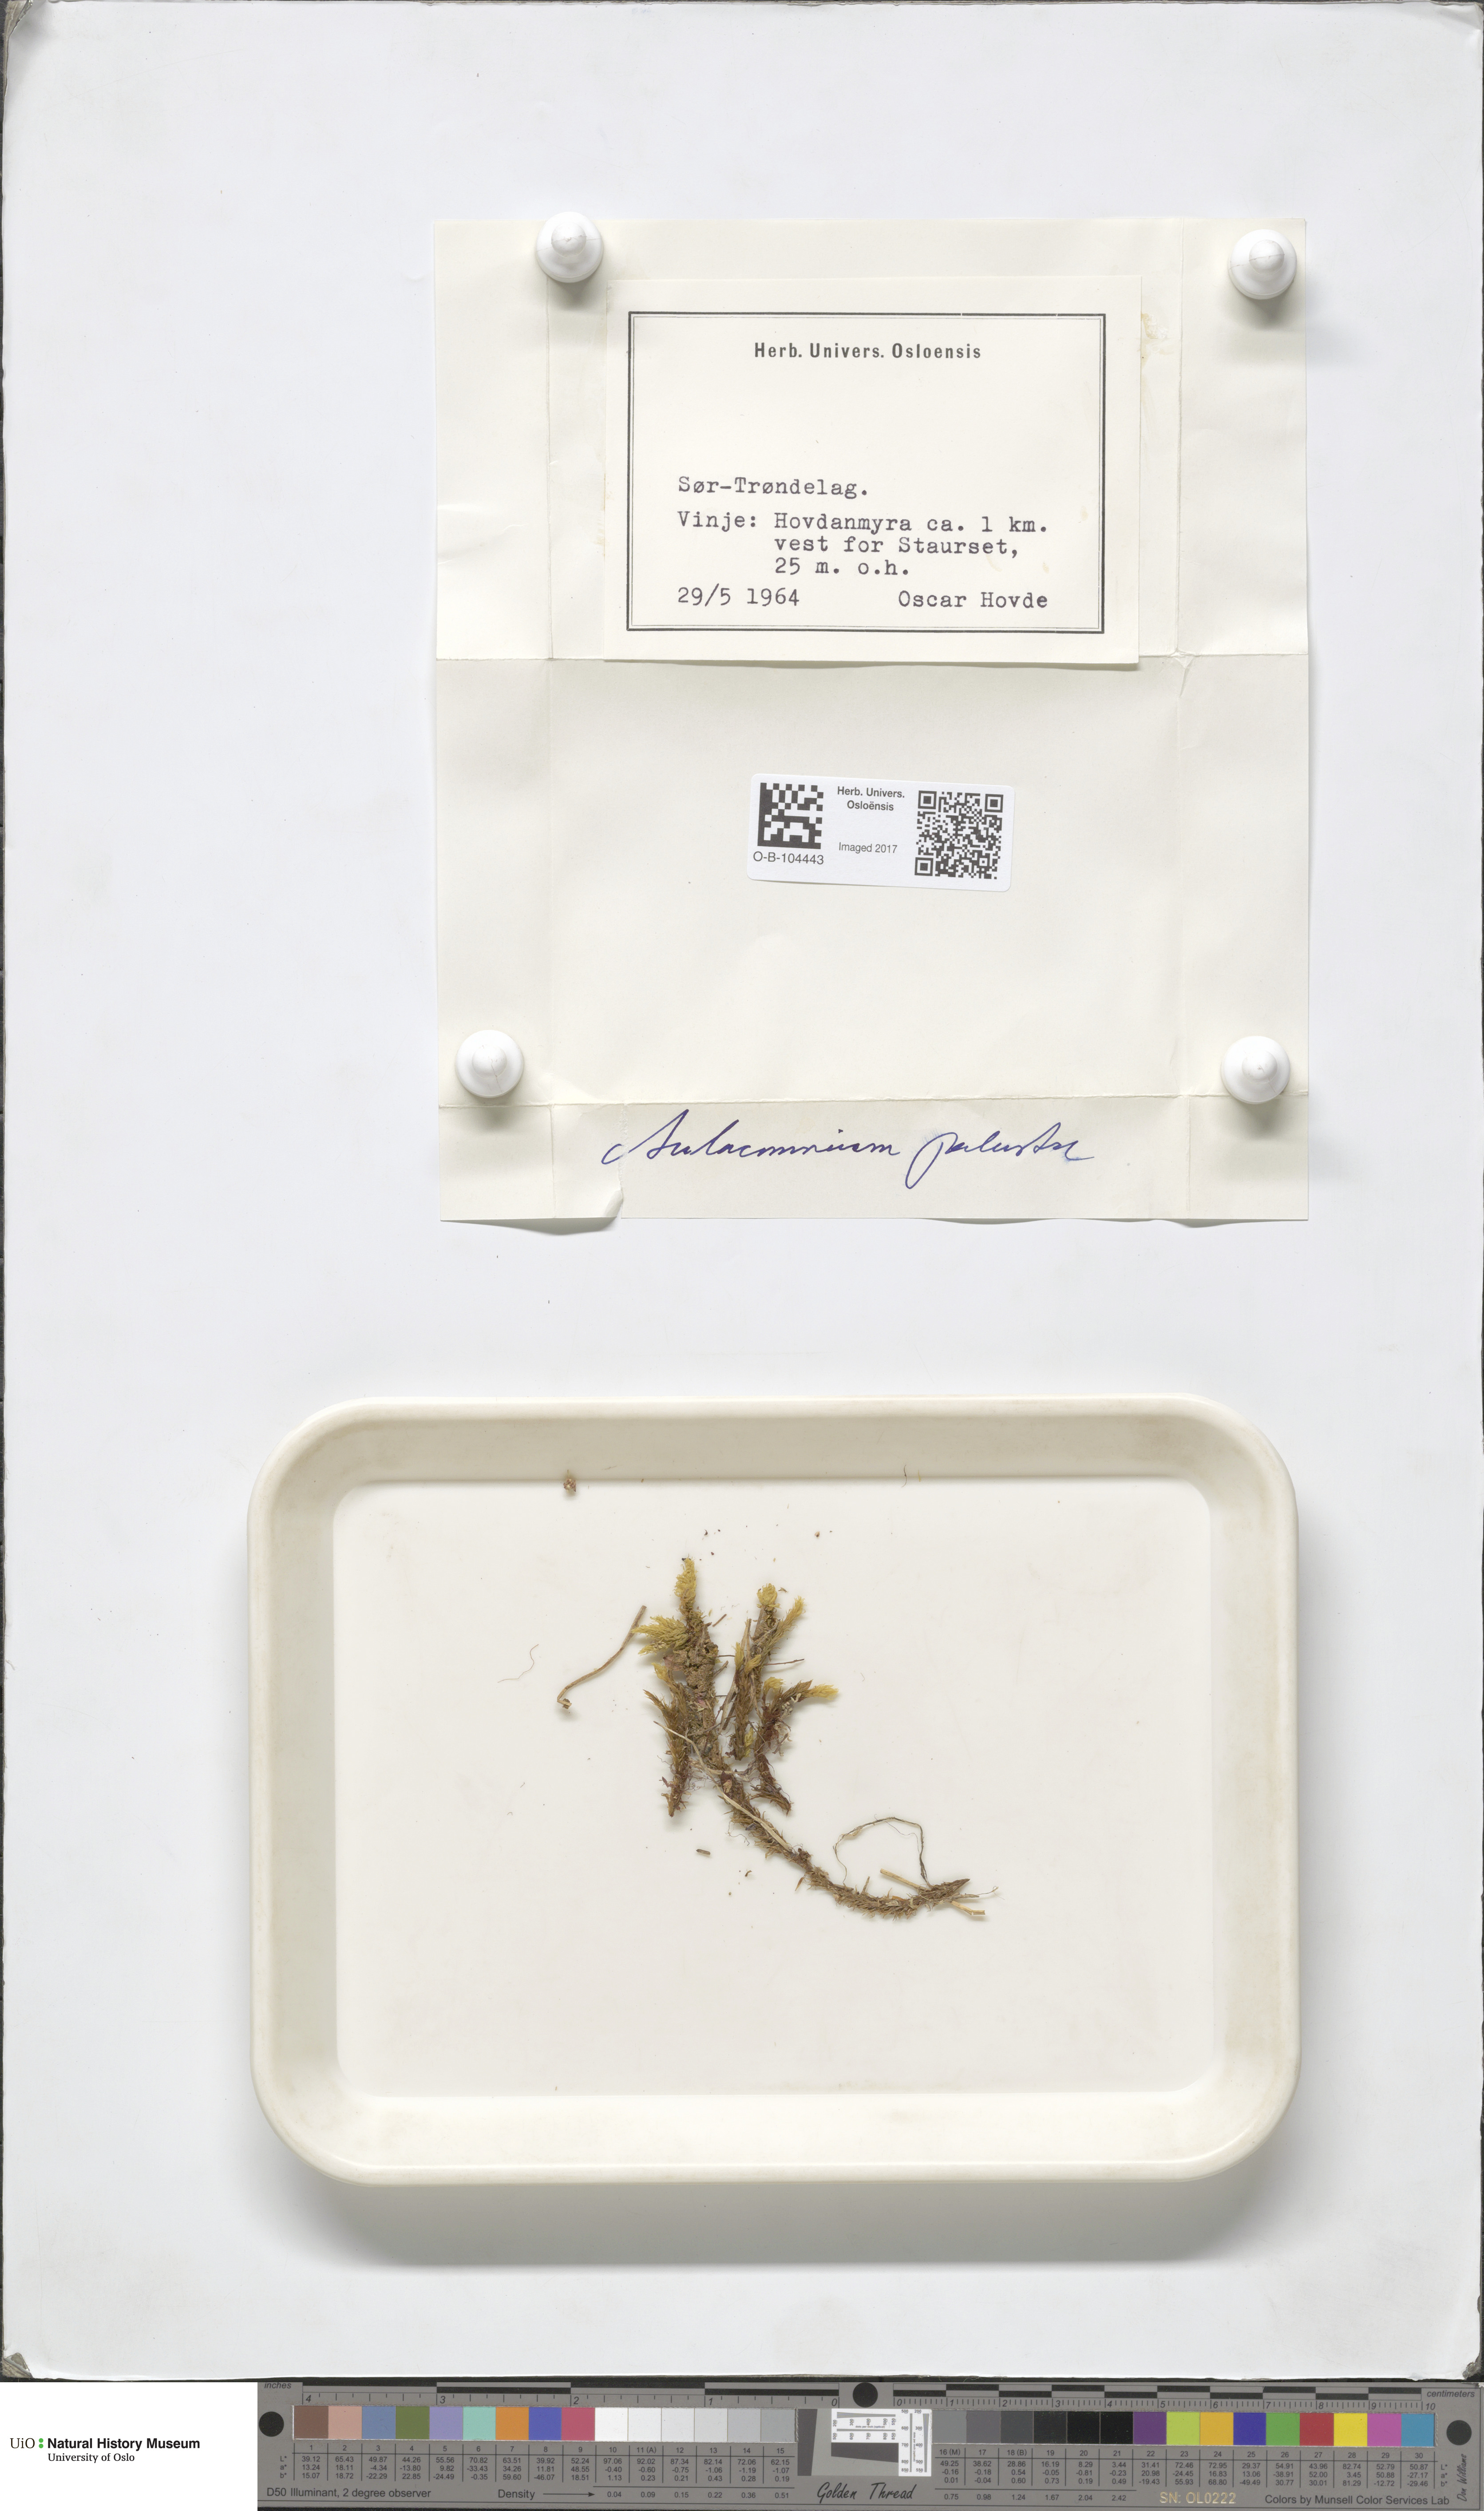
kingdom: Plantae
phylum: Bryophyta
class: Bryopsida
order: Aulacomniales
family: Aulacomniaceae
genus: Aulacomnium
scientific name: Aulacomnium palustre
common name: Bog groove-moss
